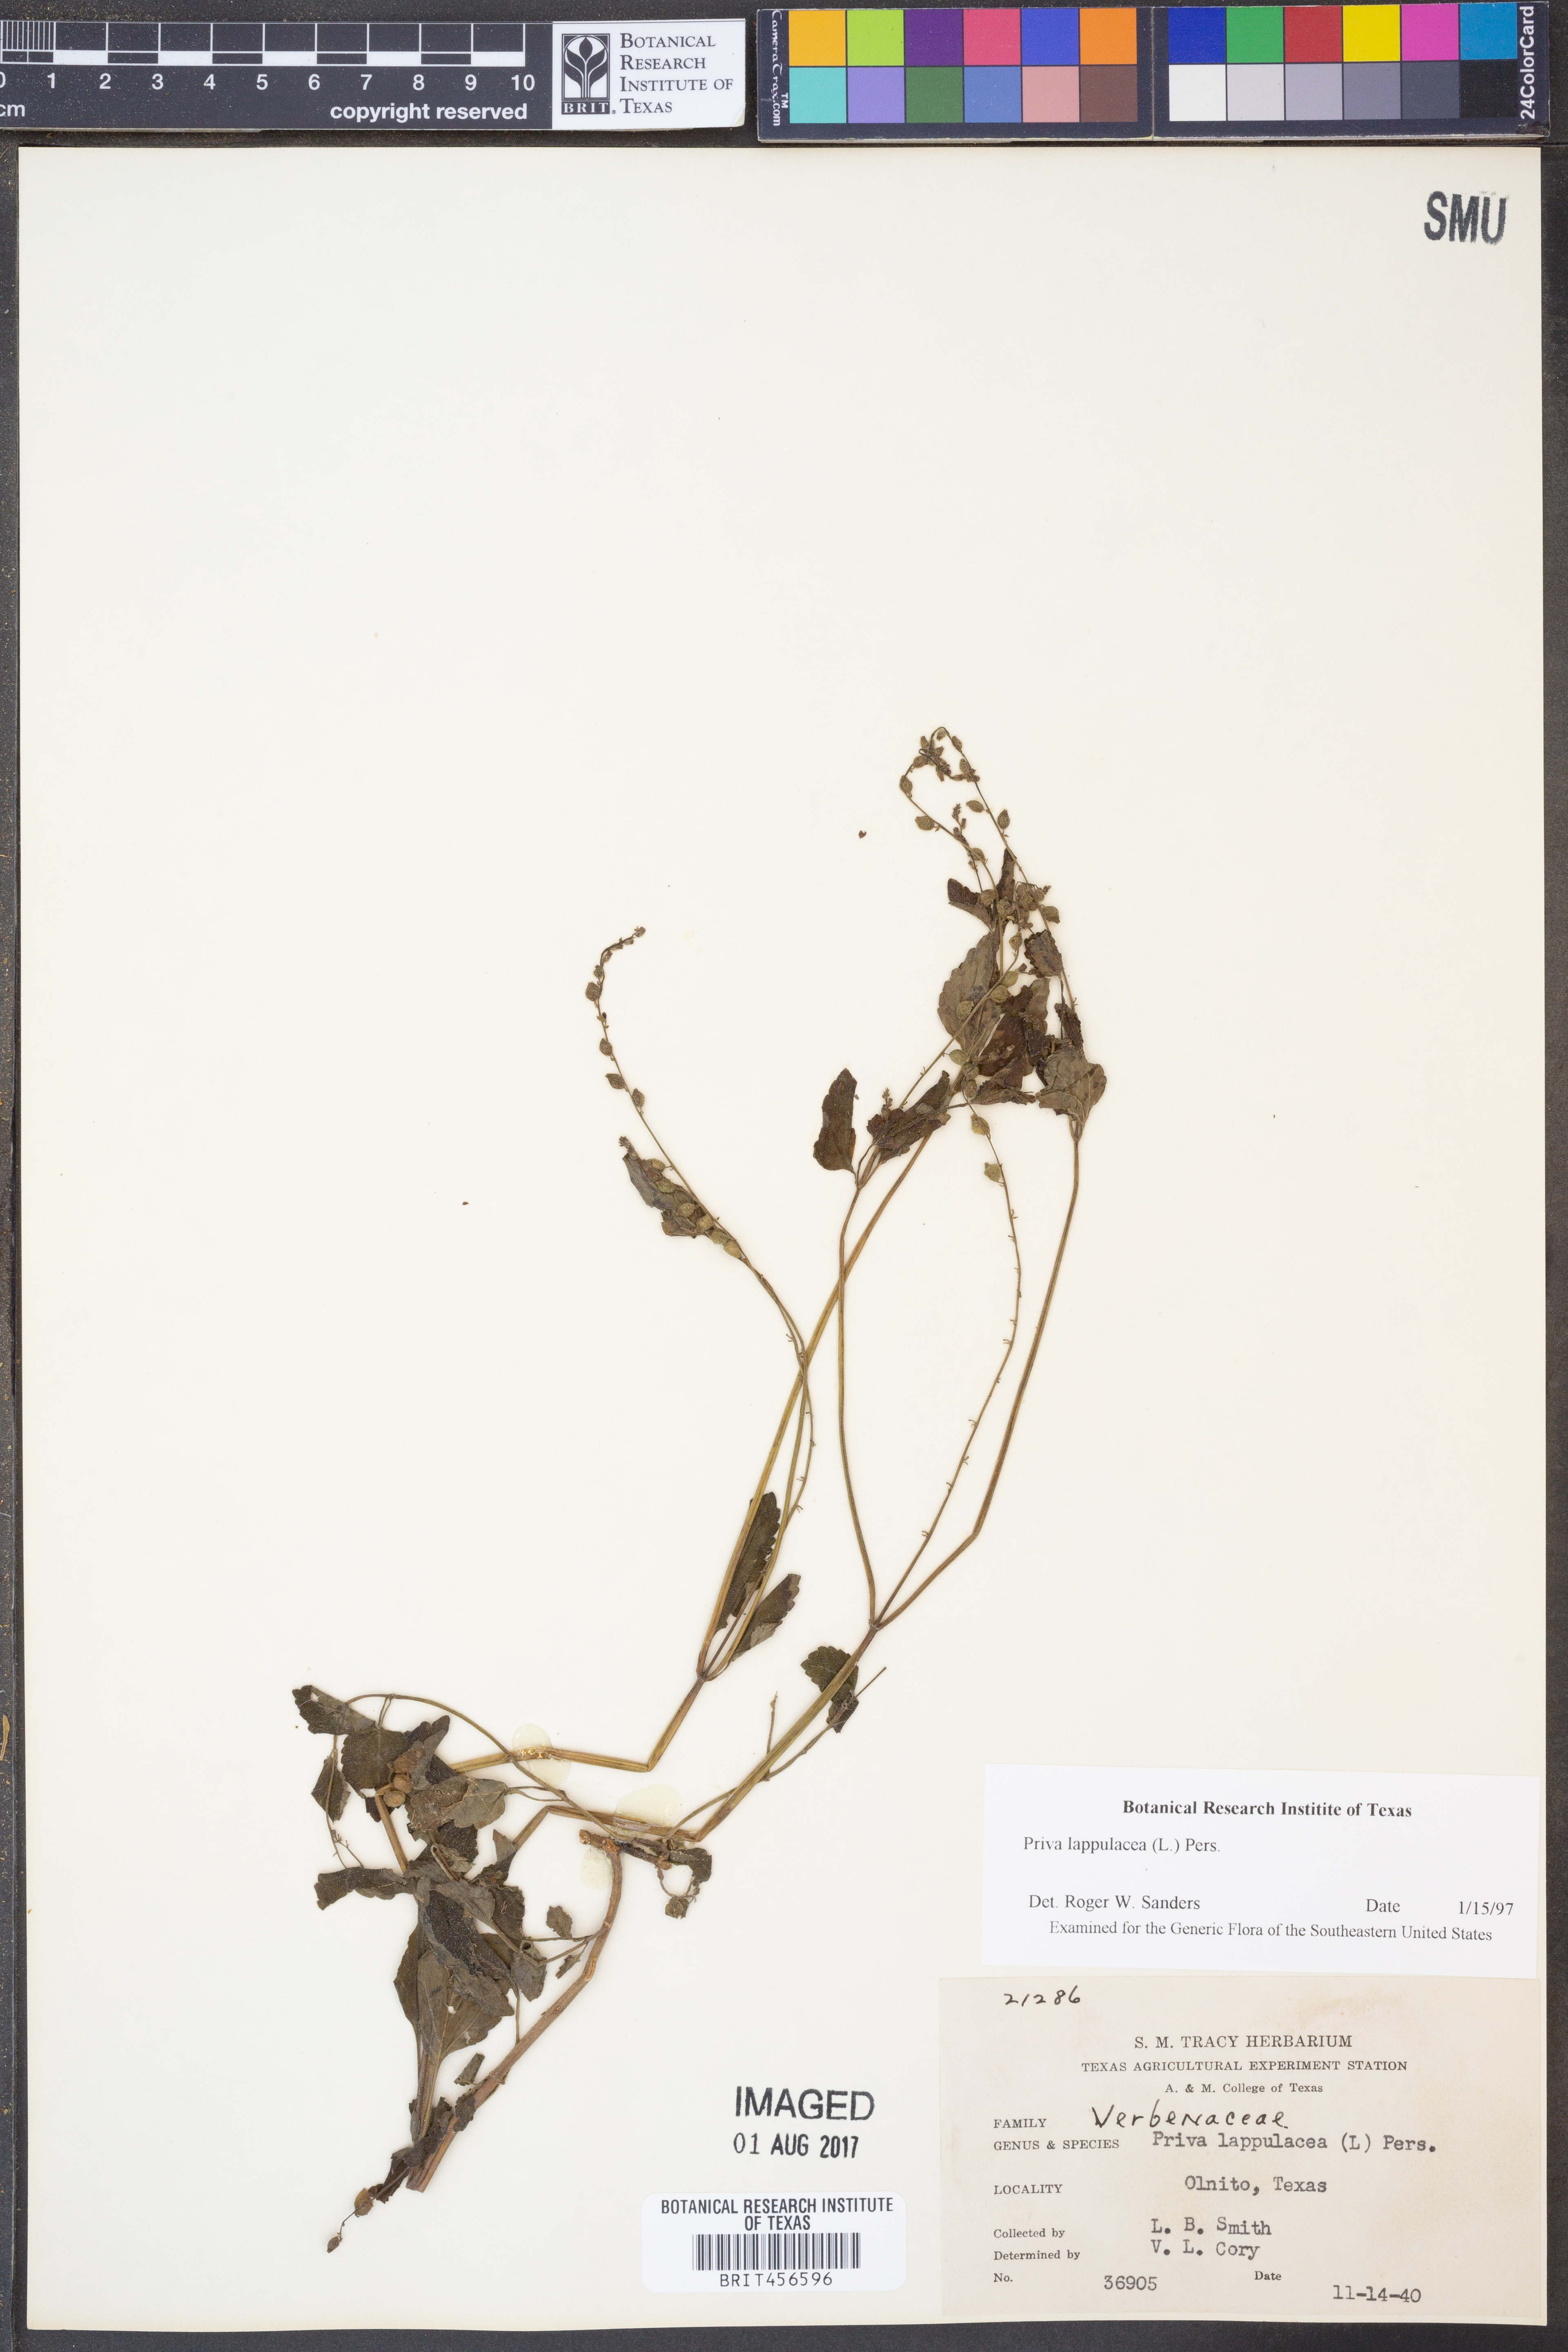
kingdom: Plantae
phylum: Tracheophyta
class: Magnoliopsida
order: Lamiales
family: Verbenaceae
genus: Priva
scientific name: Priva lappulacea
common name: Fasten-'pon-coat
